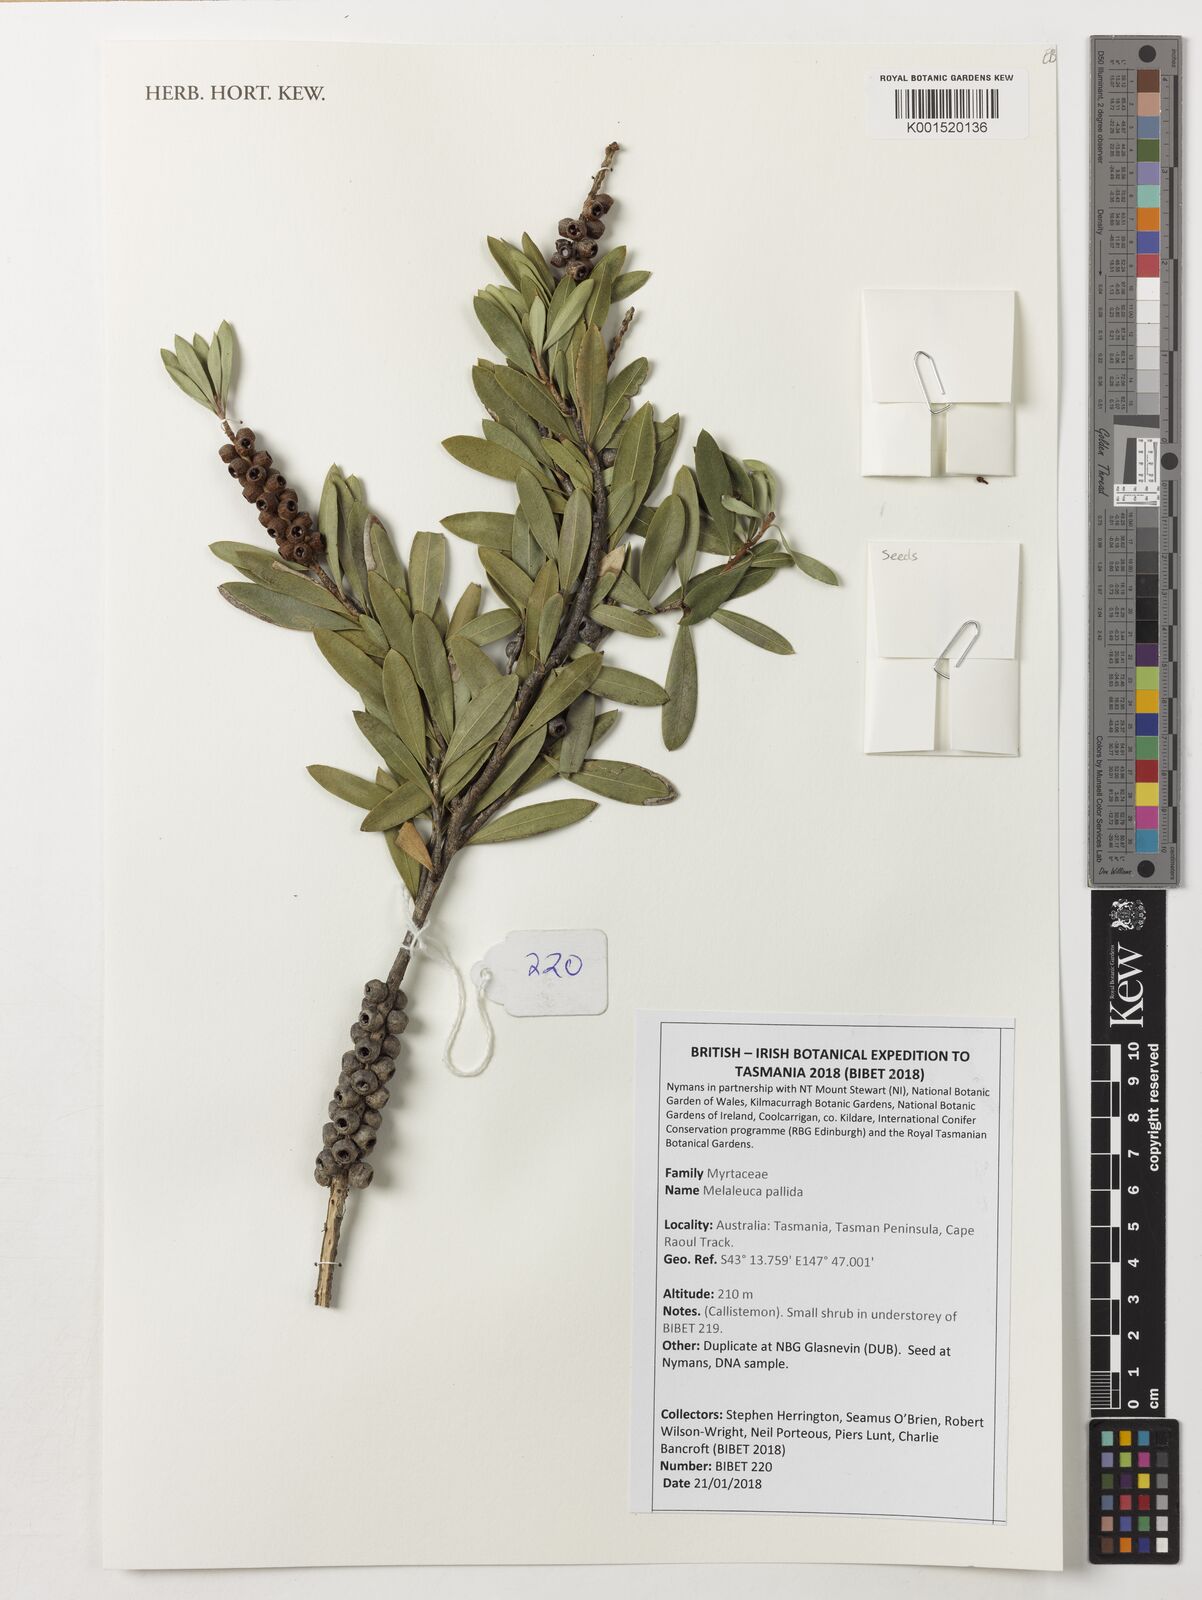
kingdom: Plantae
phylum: Tracheophyta
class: Magnoliopsida
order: Myrtales
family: Myrtaceae
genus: Melaleuca
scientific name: Melaleuca pallida
